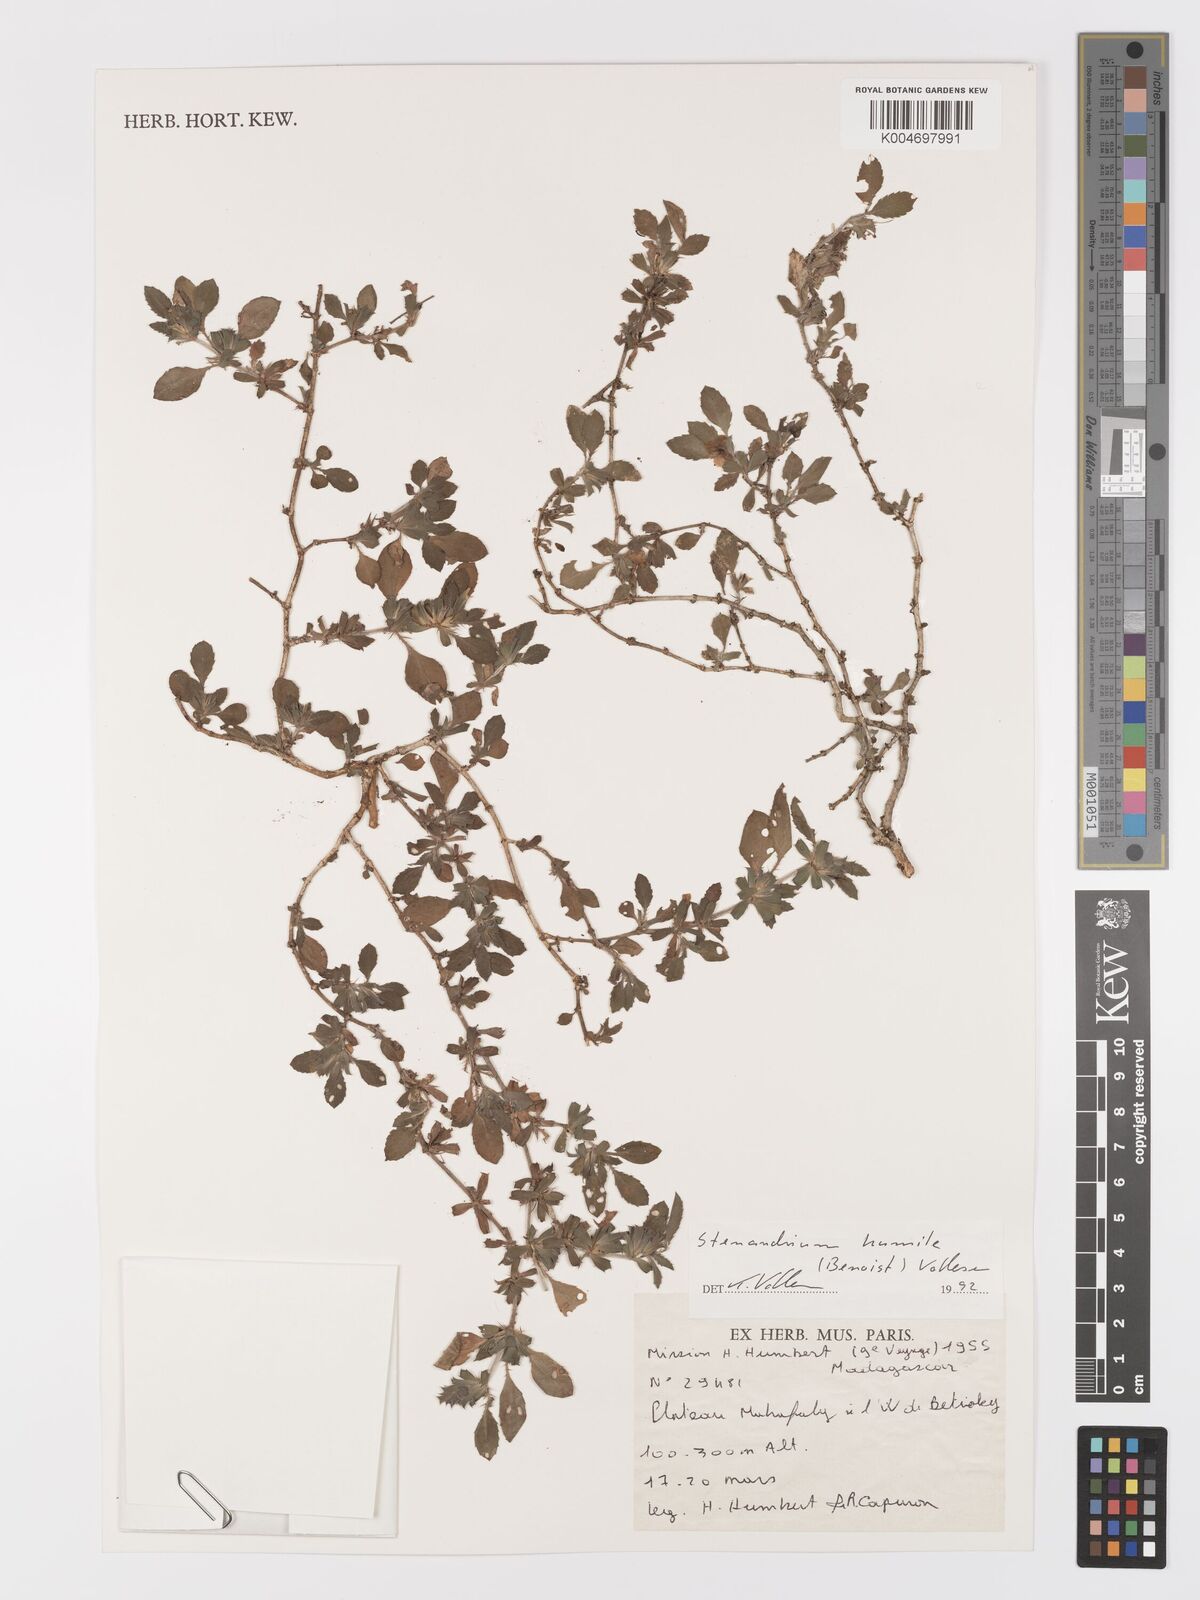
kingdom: Plantae
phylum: Tracheophyta
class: Magnoliopsida
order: Lamiales
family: Acanthaceae
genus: Stenandriopsis
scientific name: Stenandriopsis keraudrenae
